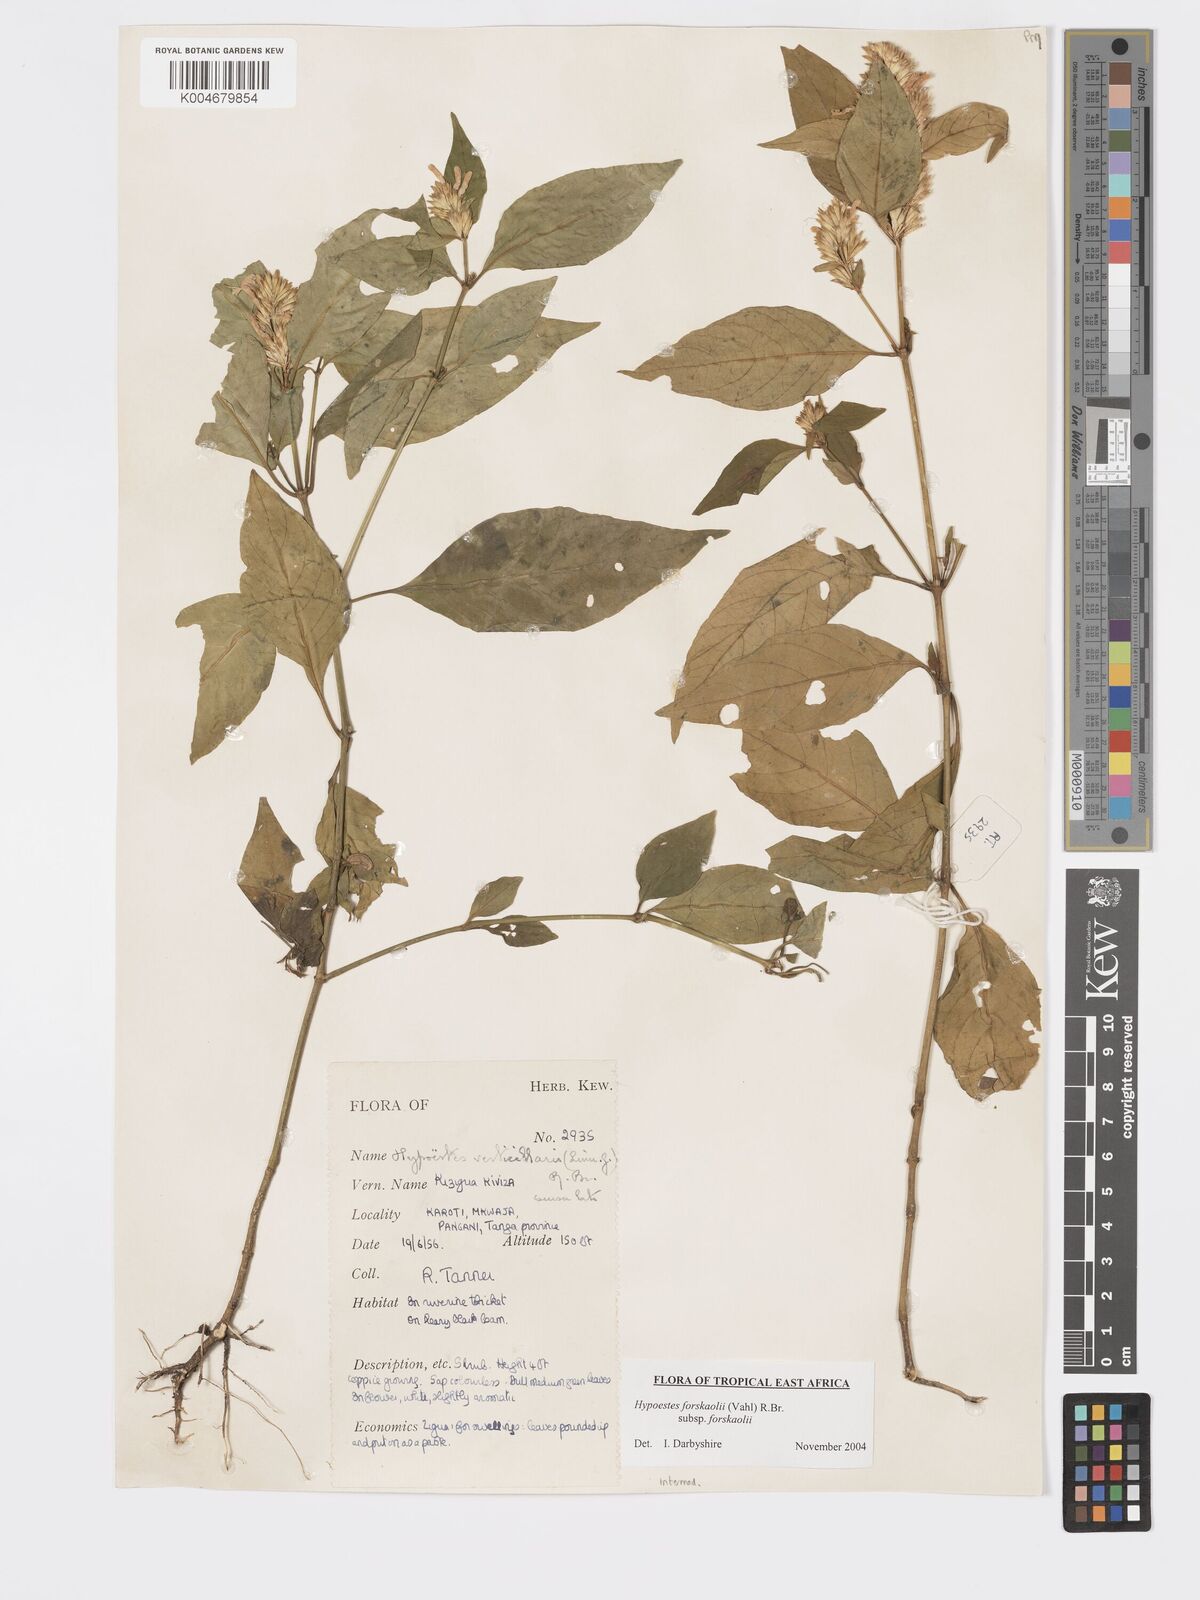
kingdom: Plantae
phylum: Tracheophyta
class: Magnoliopsida
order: Lamiales
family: Acanthaceae
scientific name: Acanthaceae
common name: Acanthaceae
